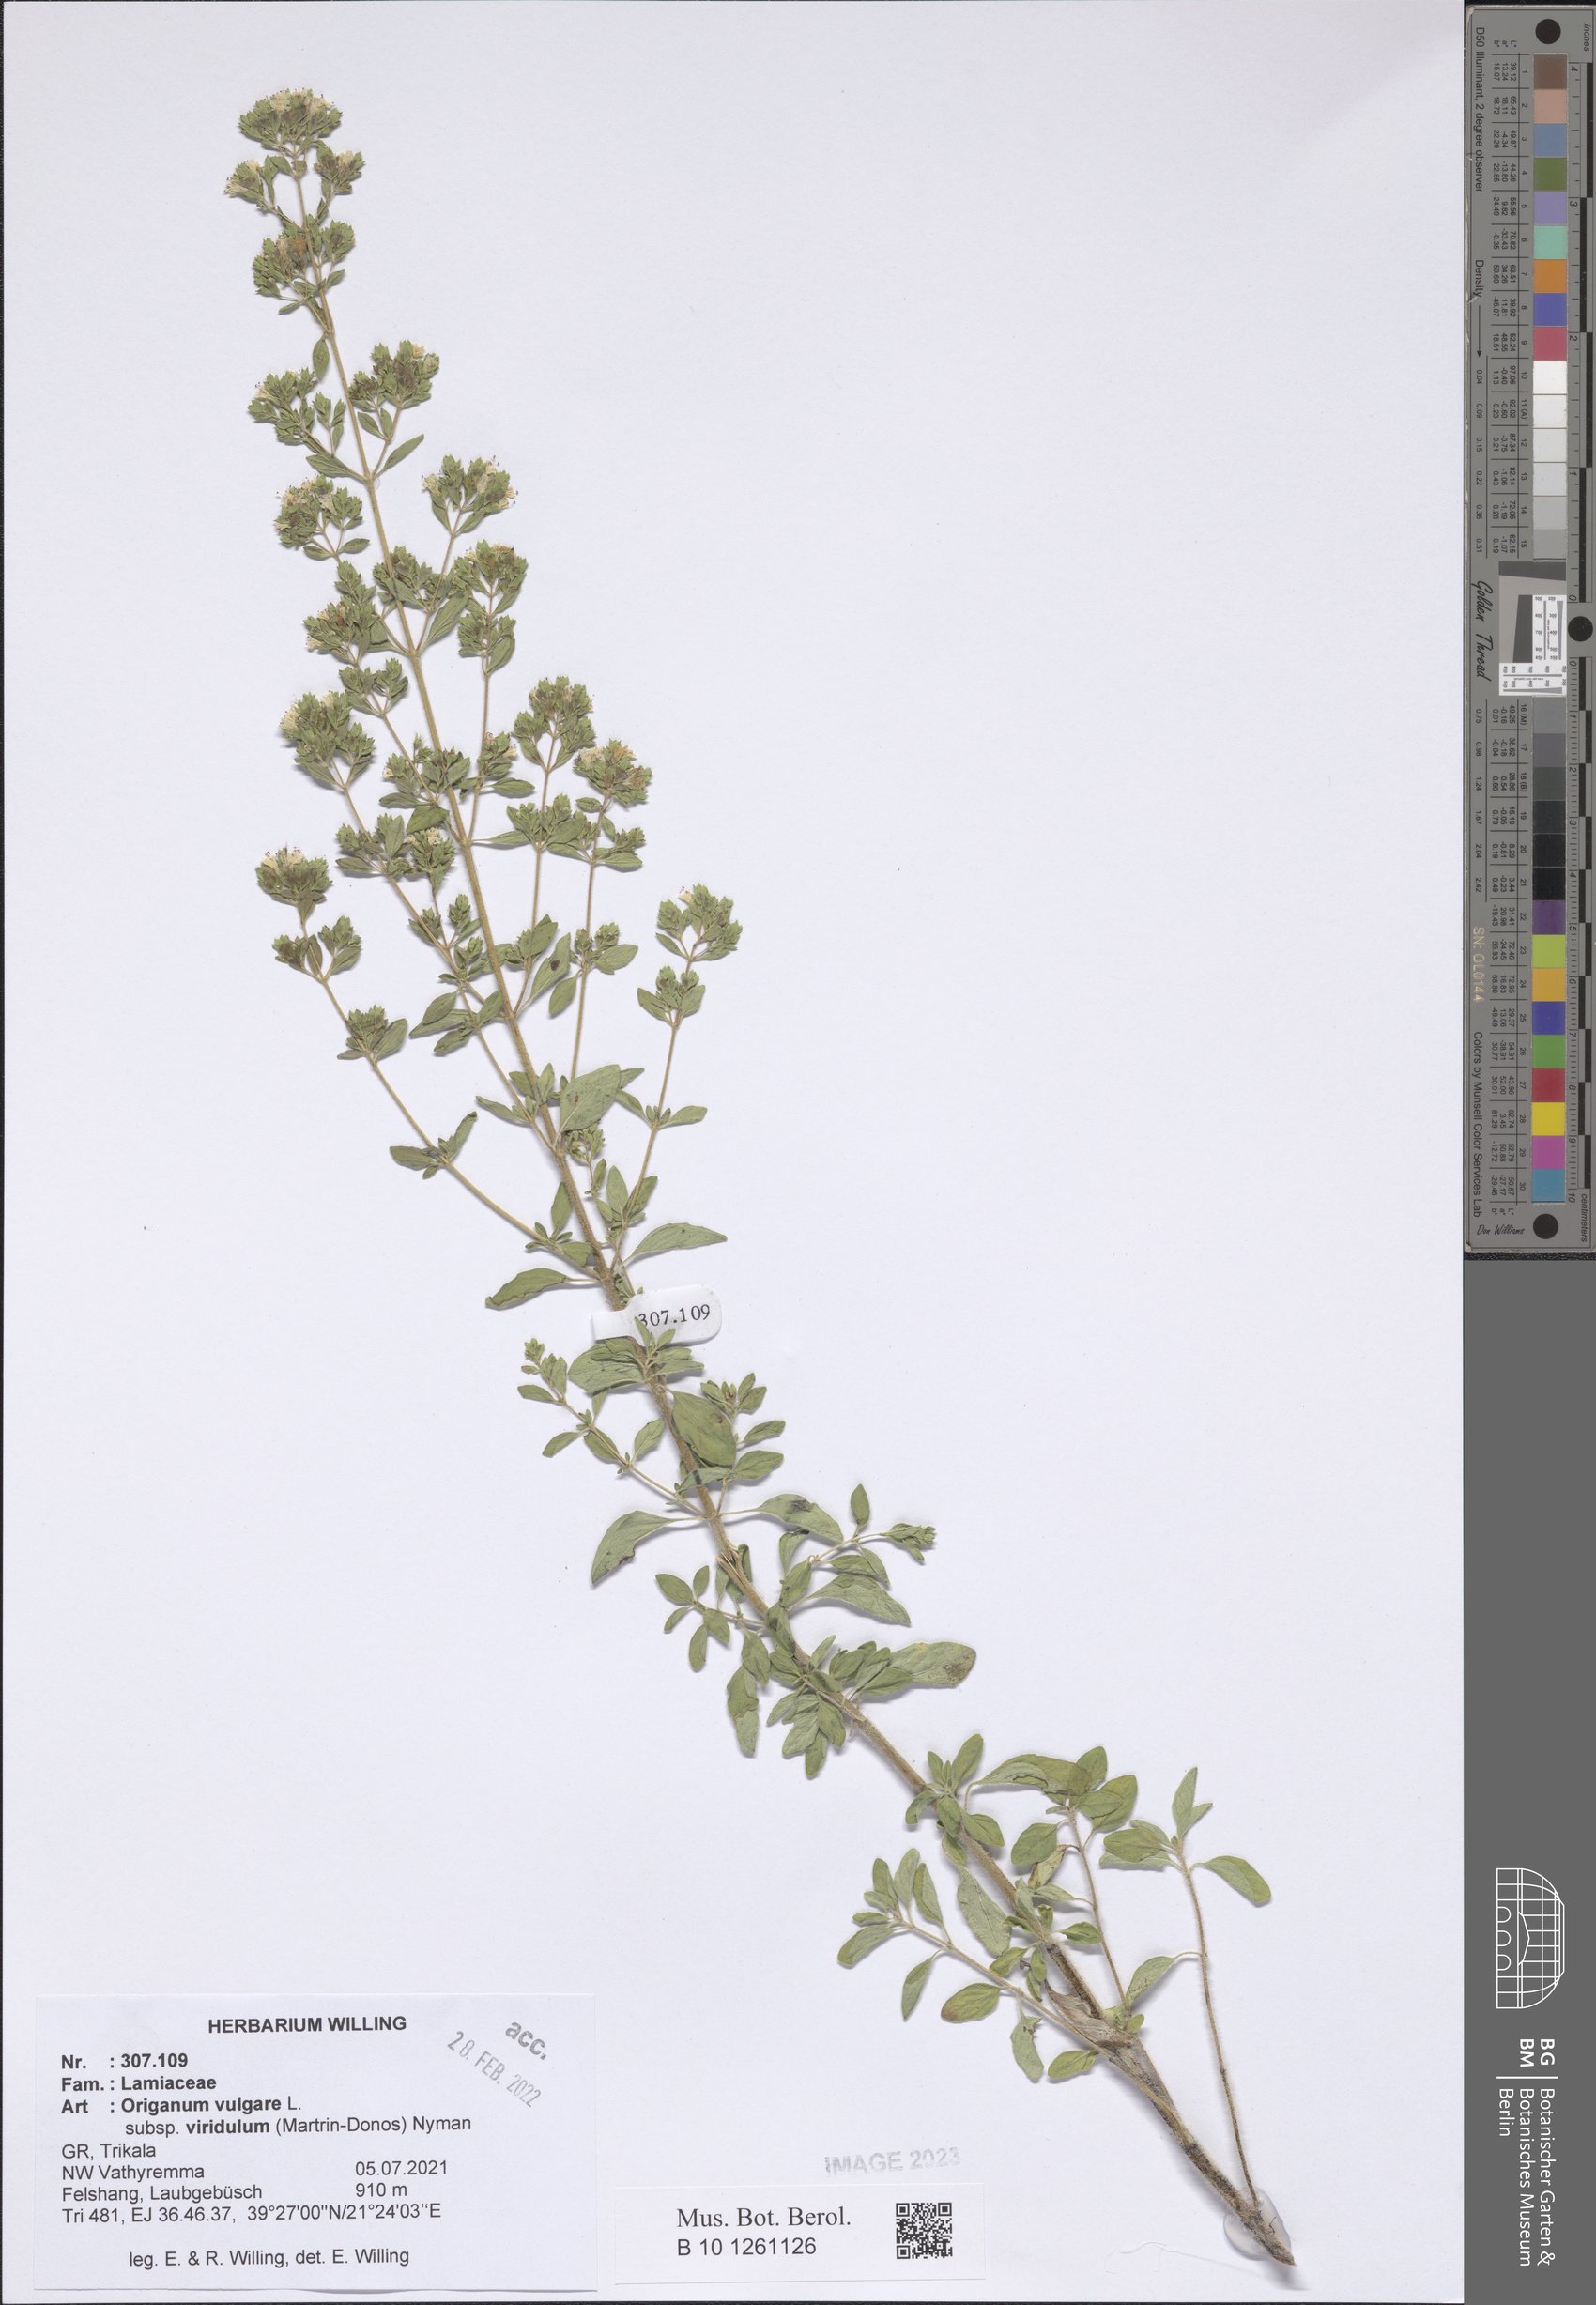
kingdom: Plantae
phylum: Tracheophyta
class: Magnoliopsida
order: Lamiales
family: Lamiaceae
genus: Origanum
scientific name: Origanum vulgare
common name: Wild marjoram
